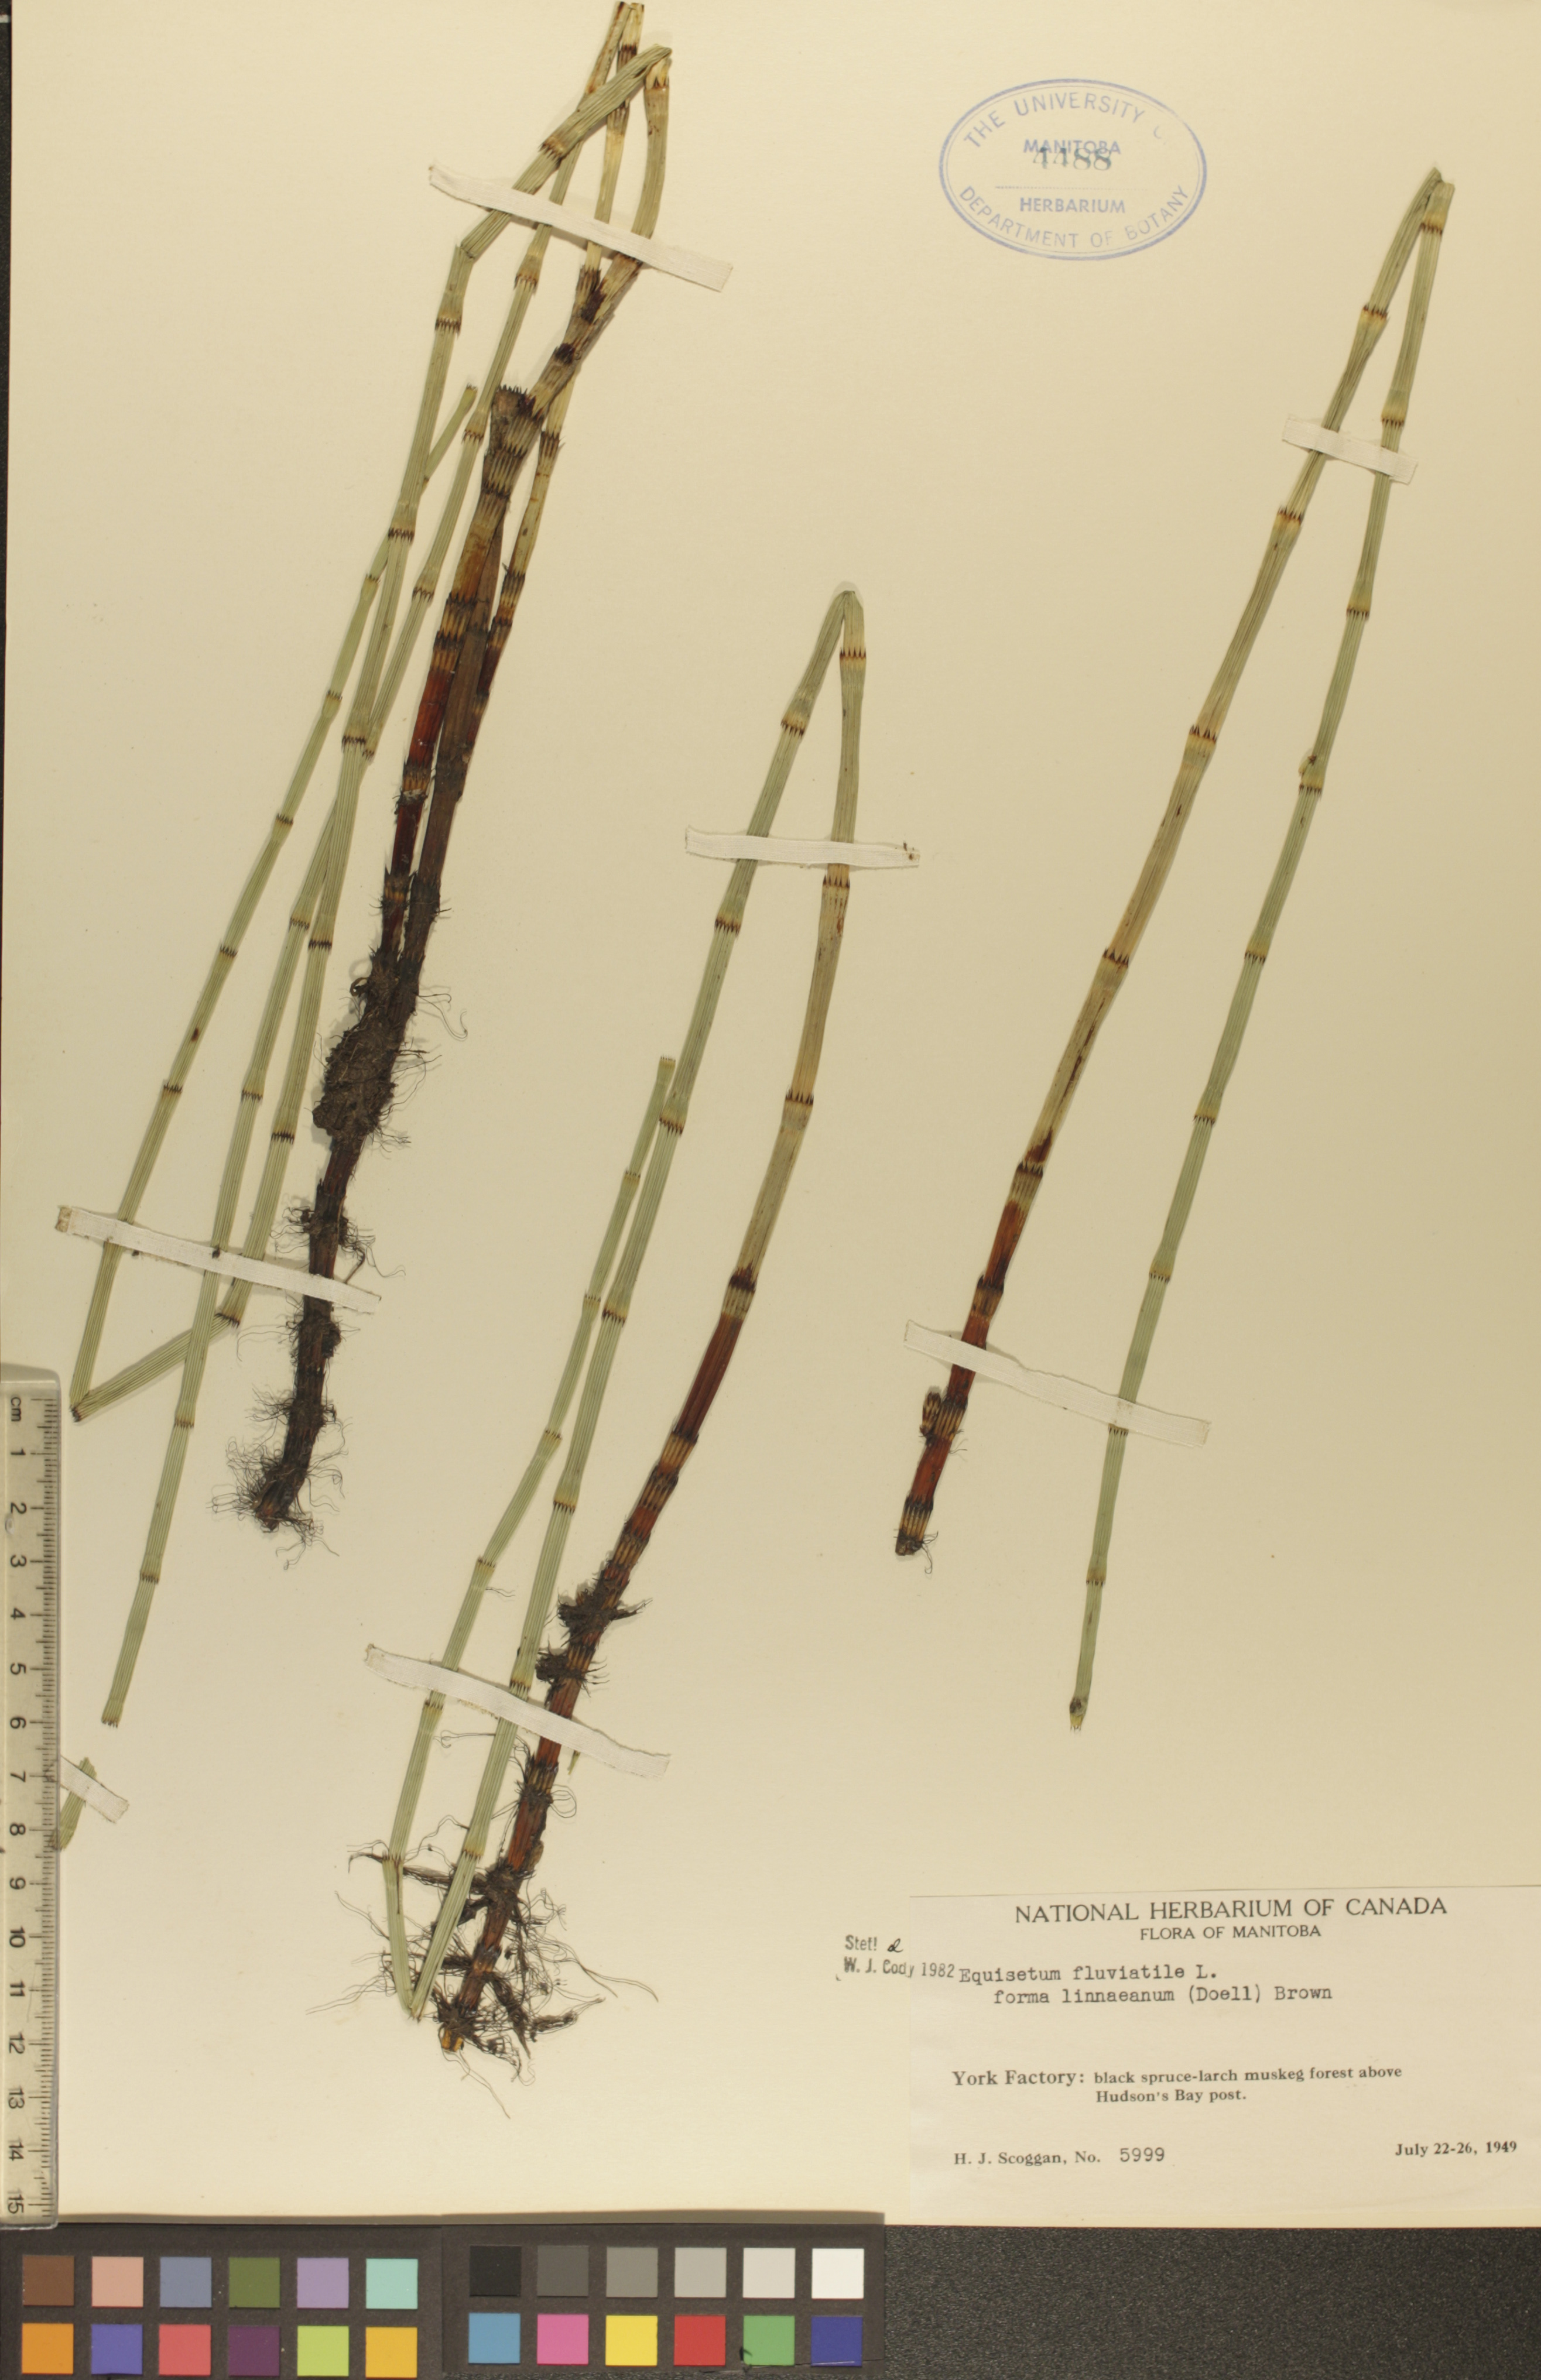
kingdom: Plantae
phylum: Tracheophyta
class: Polypodiopsida
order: Equisetales
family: Equisetaceae
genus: Equisetum
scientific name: Equisetum fluviatile
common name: Water horsetail
